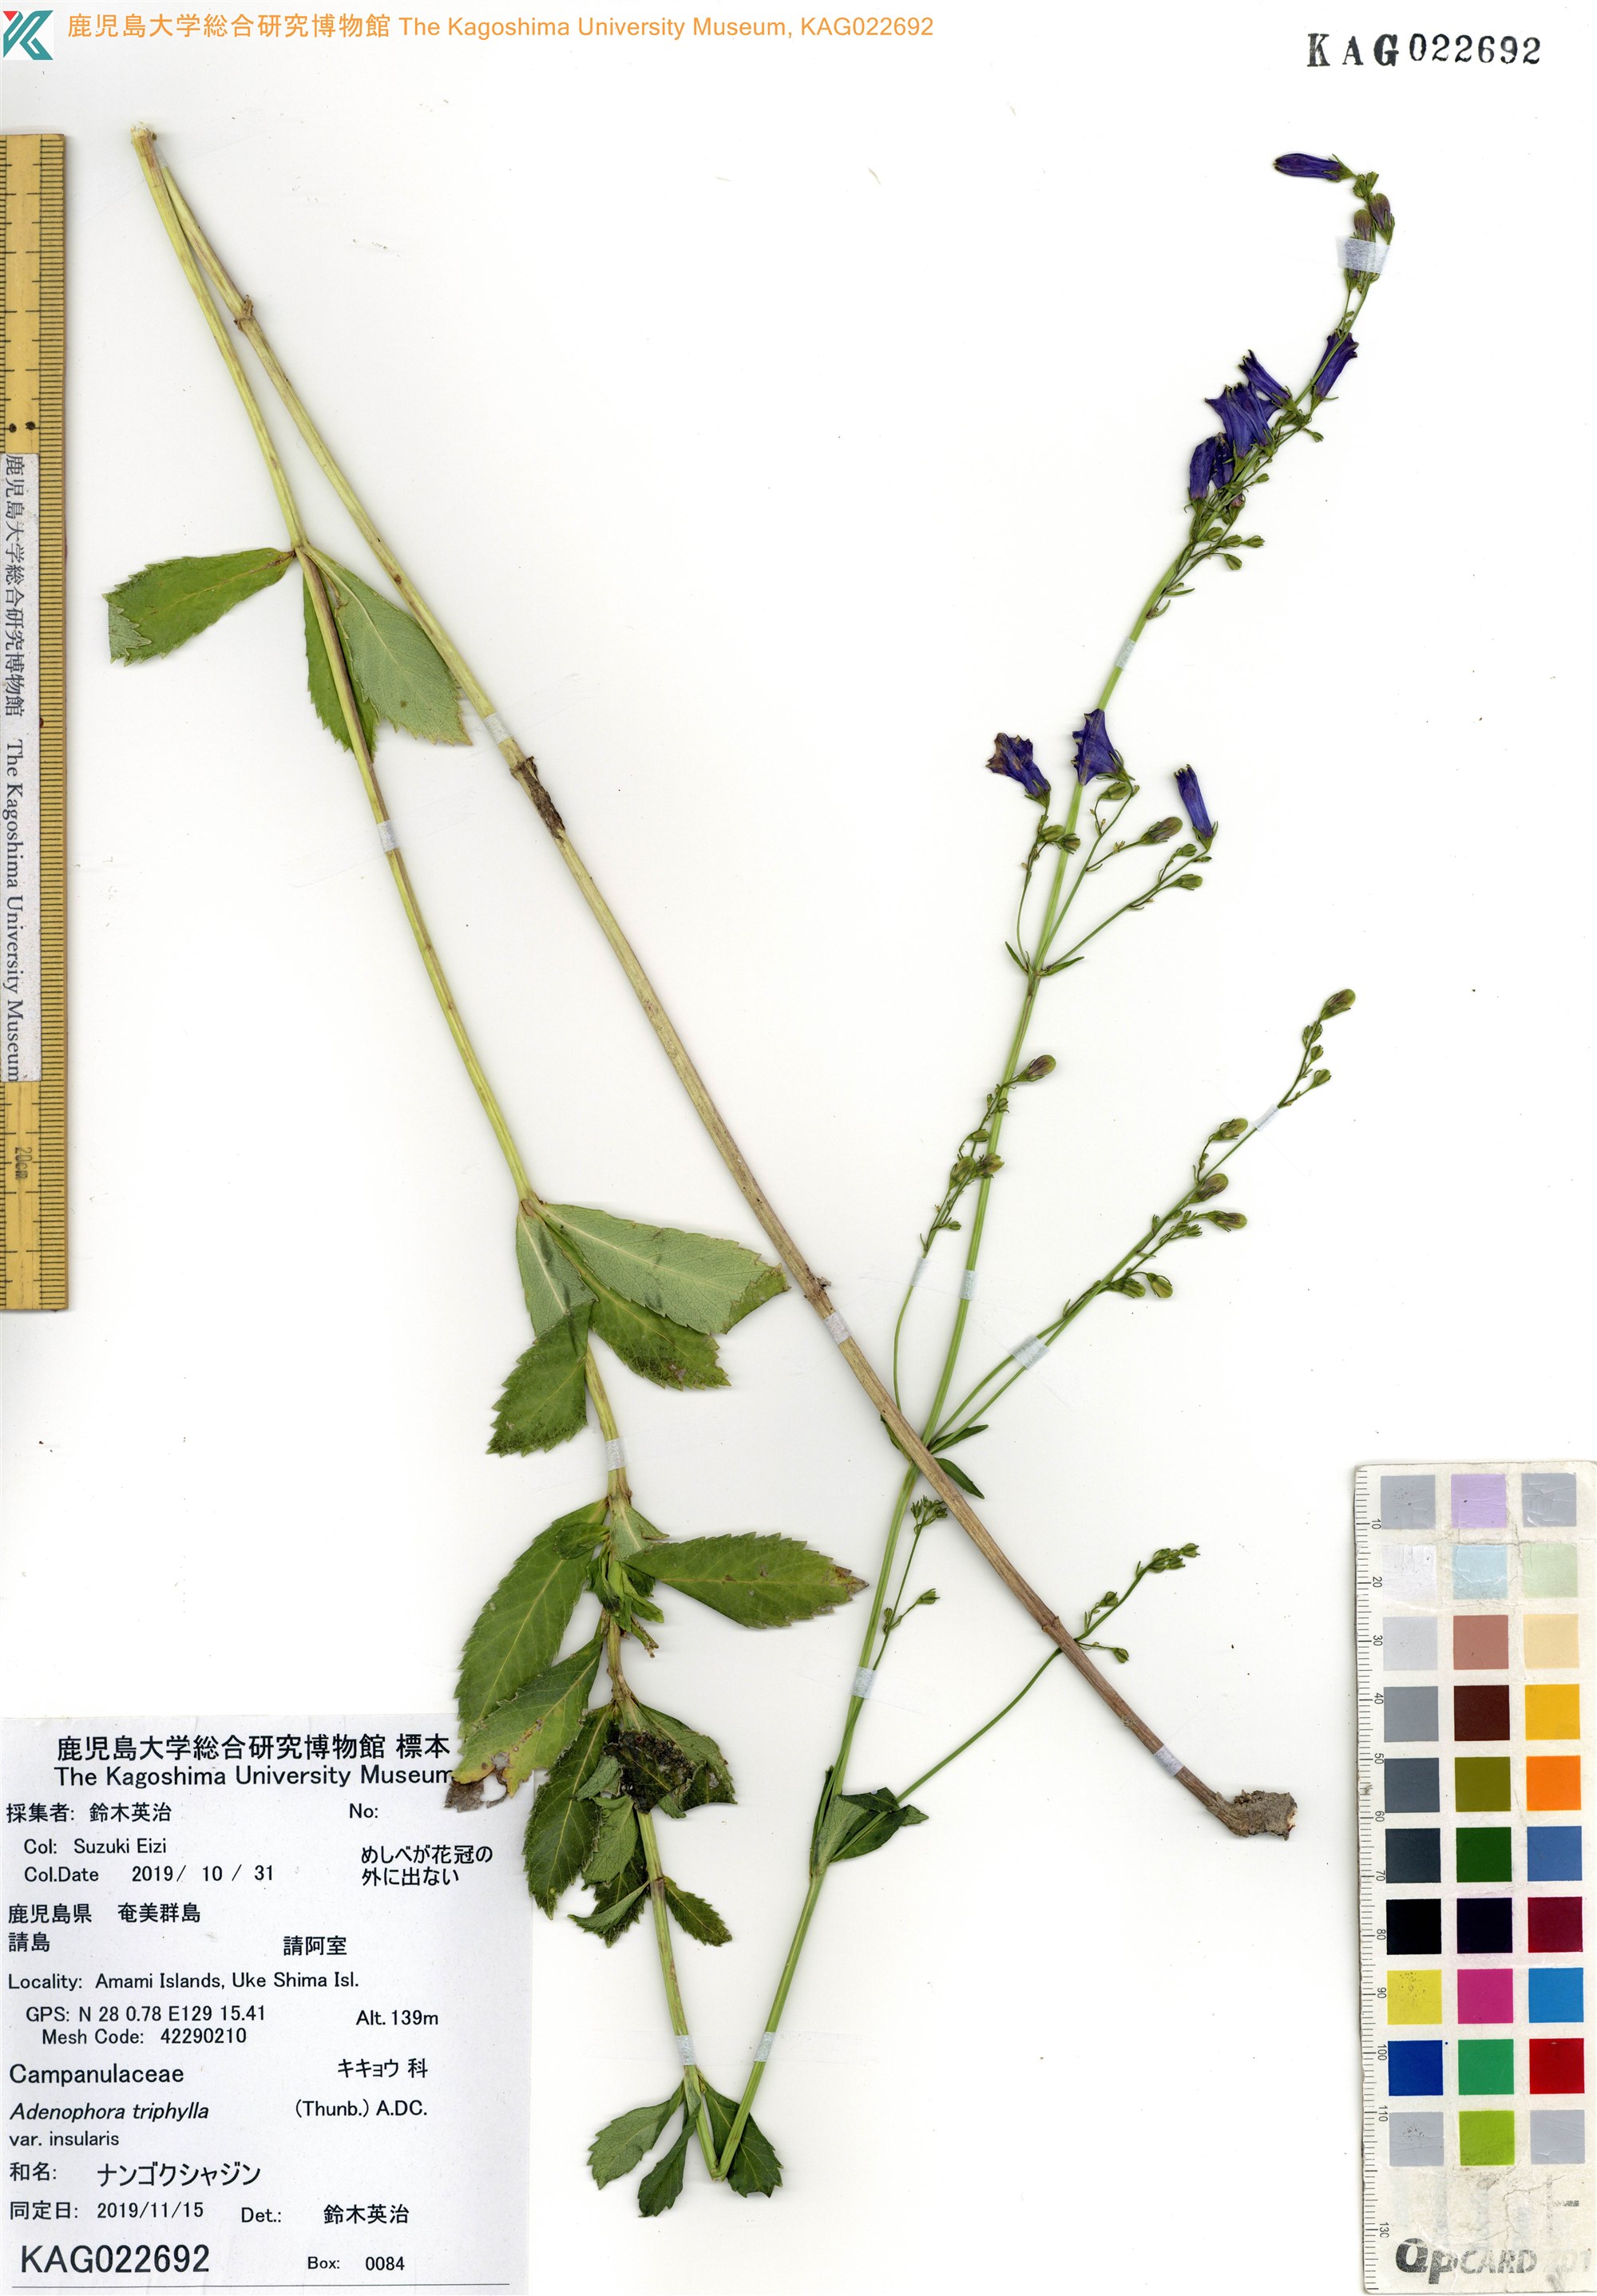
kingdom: Plantae
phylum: Tracheophyta
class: Magnoliopsida
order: Asterales
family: Campanulaceae
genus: Adenophora
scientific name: Adenophora triphylla
